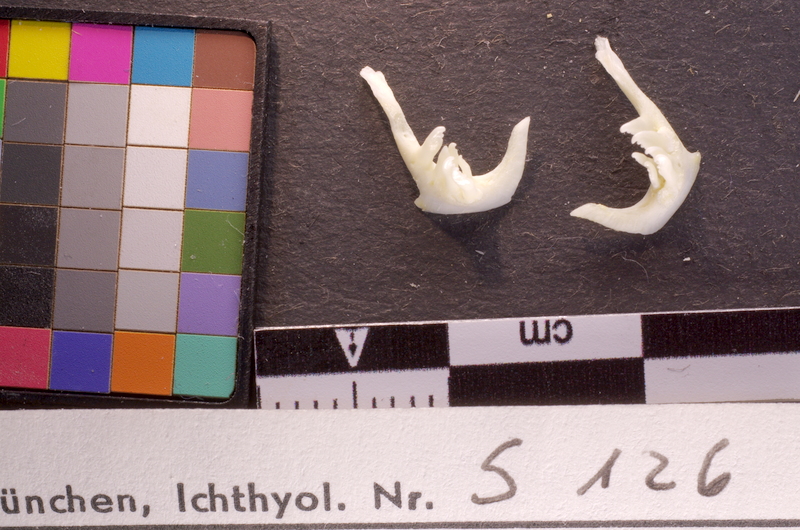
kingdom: Animalia
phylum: Chordata
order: Cypriniformes
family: Cyprinidae
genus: Squalius
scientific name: Squalius cephalus
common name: Chub
